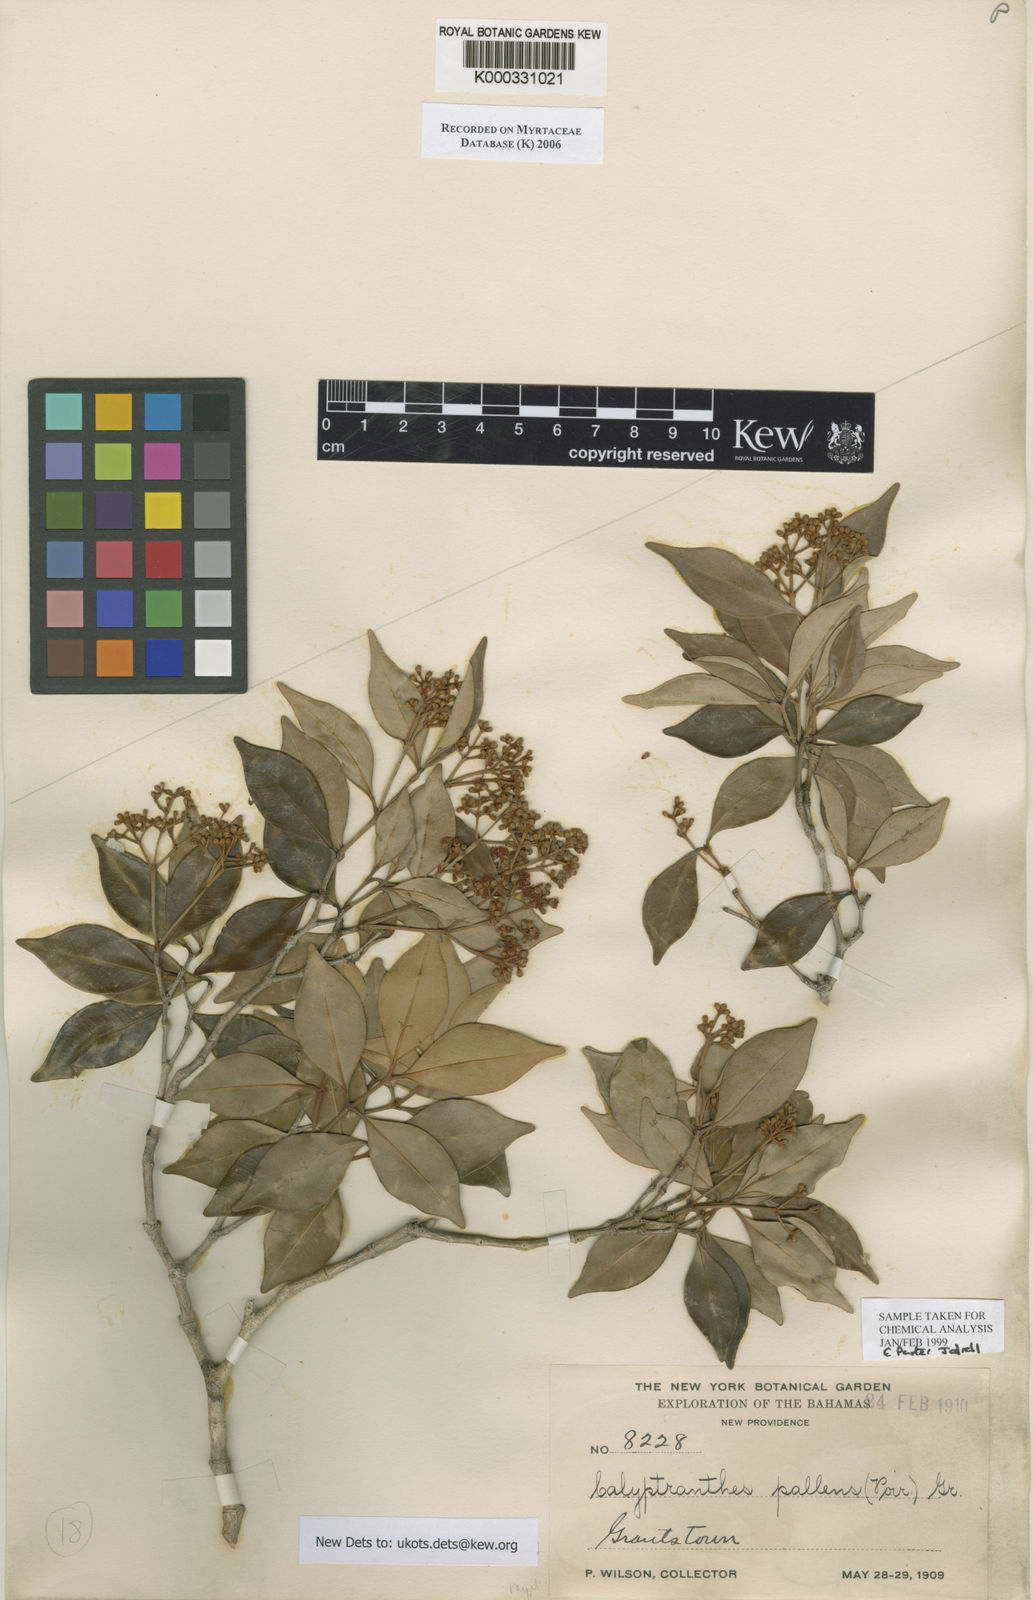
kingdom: Plantae
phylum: Tracheophyta
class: Magnoliopsida
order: Myrtales
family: Myrtaceae
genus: Myrcia
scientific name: Myrcia neopallens
